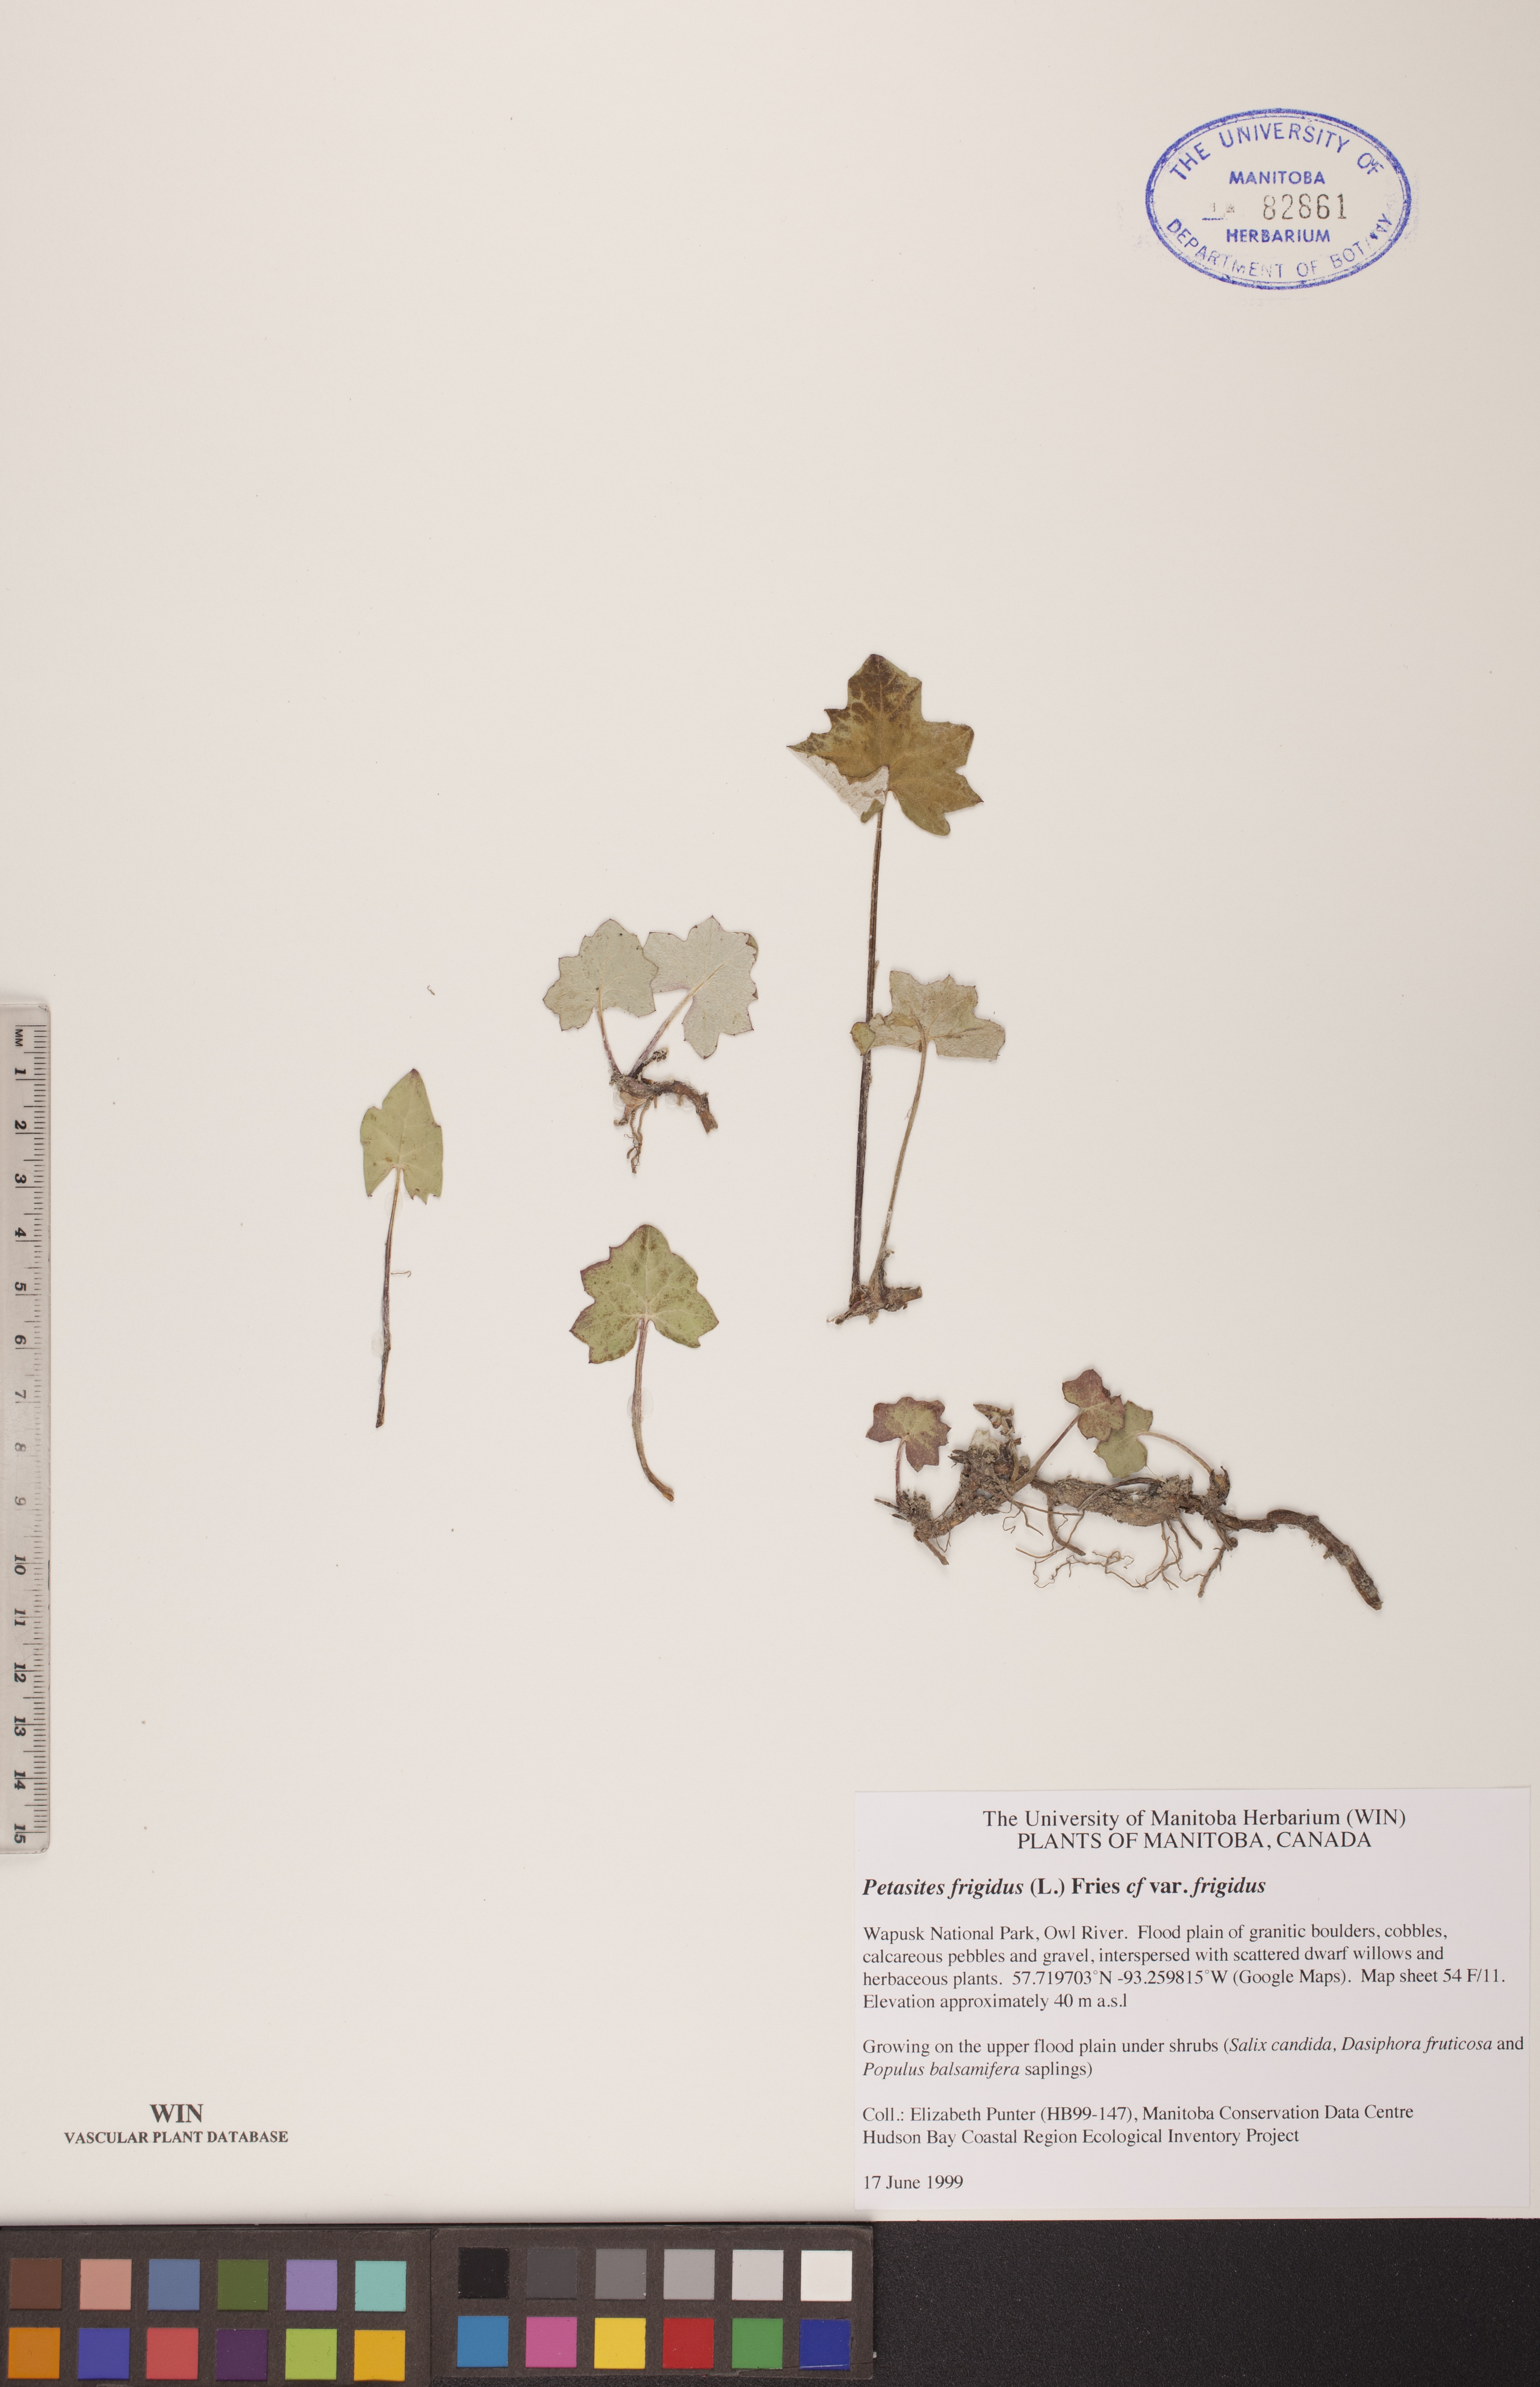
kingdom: Plantae
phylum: Tracheophyta
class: Magnoliopsida
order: Asterales
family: Asteraceae
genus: Petasites
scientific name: Petasites frigidus
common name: Arctic butterbur
